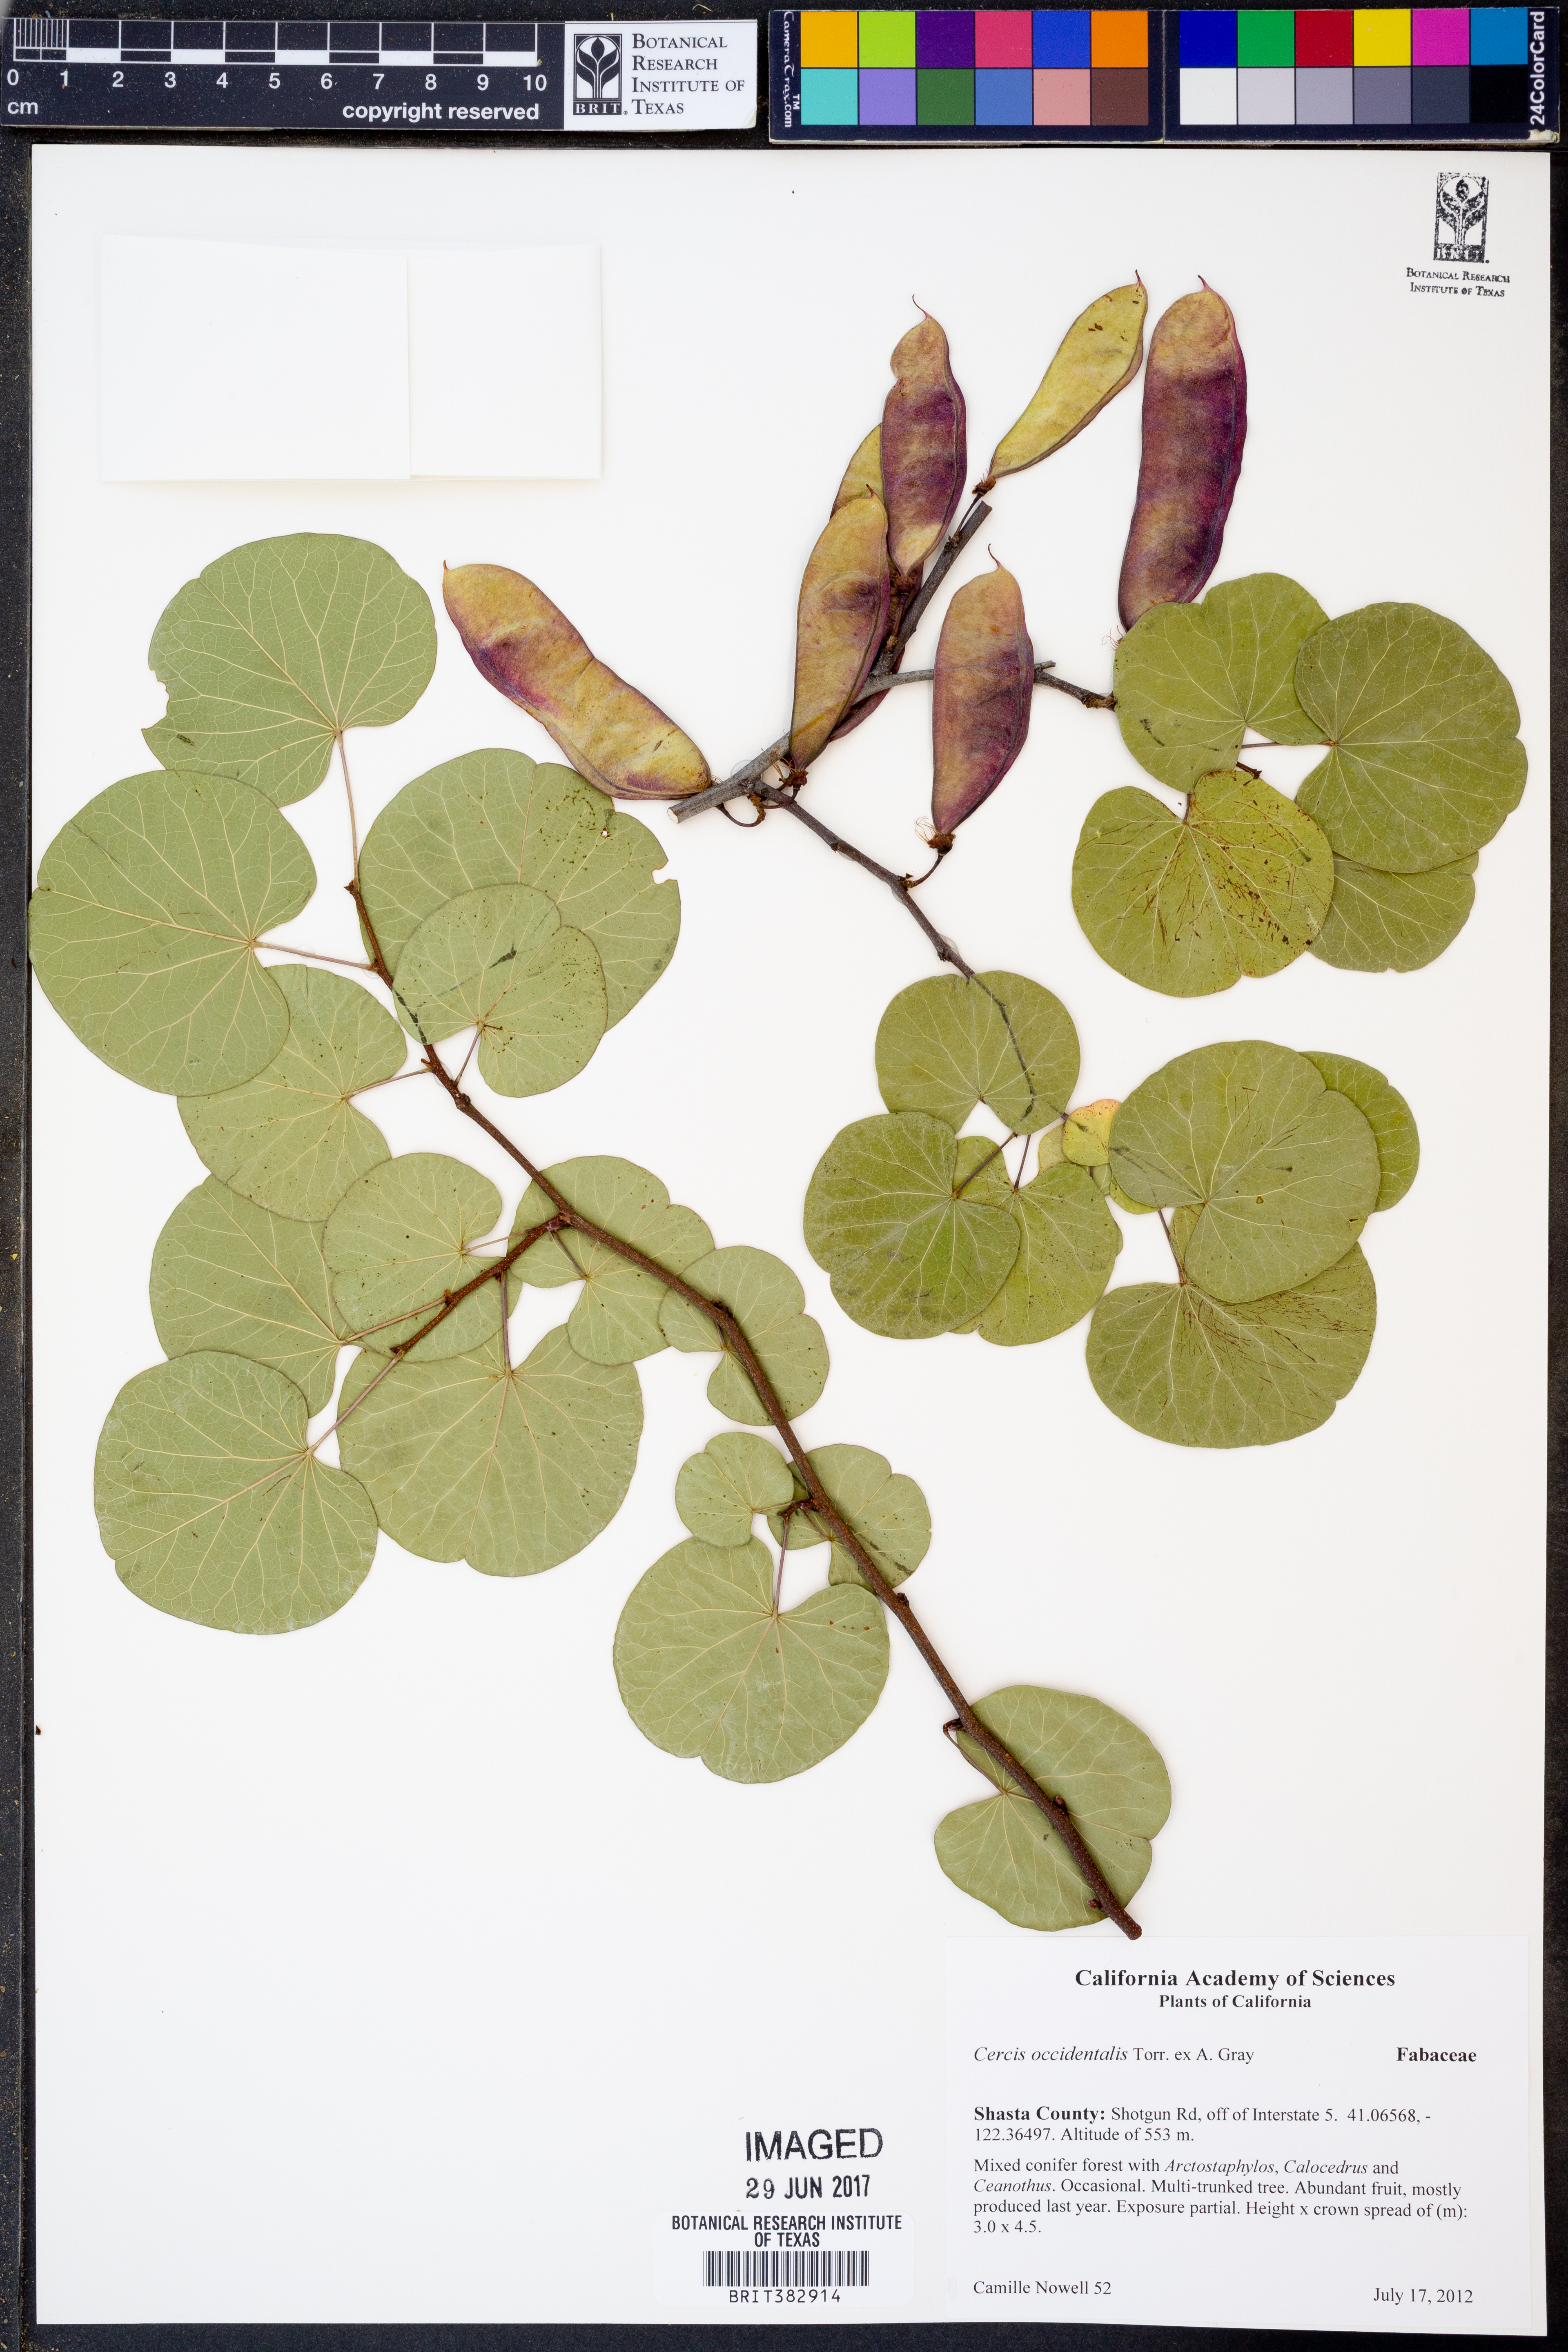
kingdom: Plantae
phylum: Tracheophyta
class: Magnoliopsida
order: Fabales
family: Fabaceae
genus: Cercis
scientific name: Cercis occidentalis
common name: California redbud
